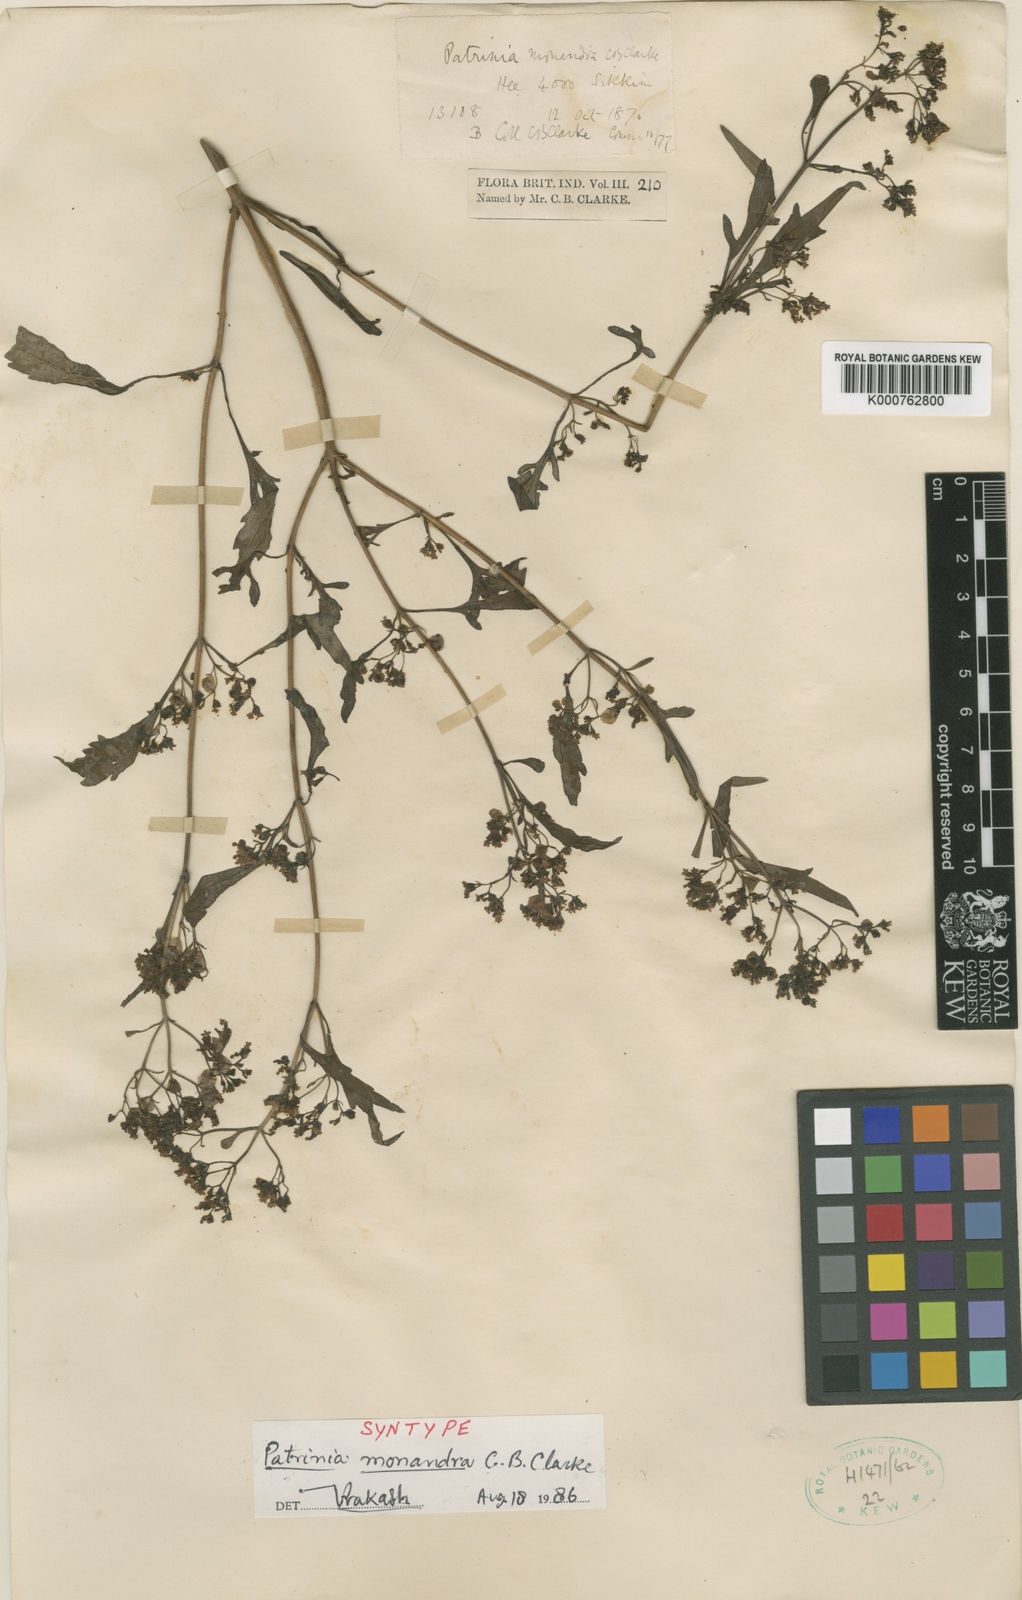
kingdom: Plantae
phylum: Tracheophyta
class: Magnoliopsida
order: Dipsacales
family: Caprifoliaceae
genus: Patrinia
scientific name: Patrinia monandra
